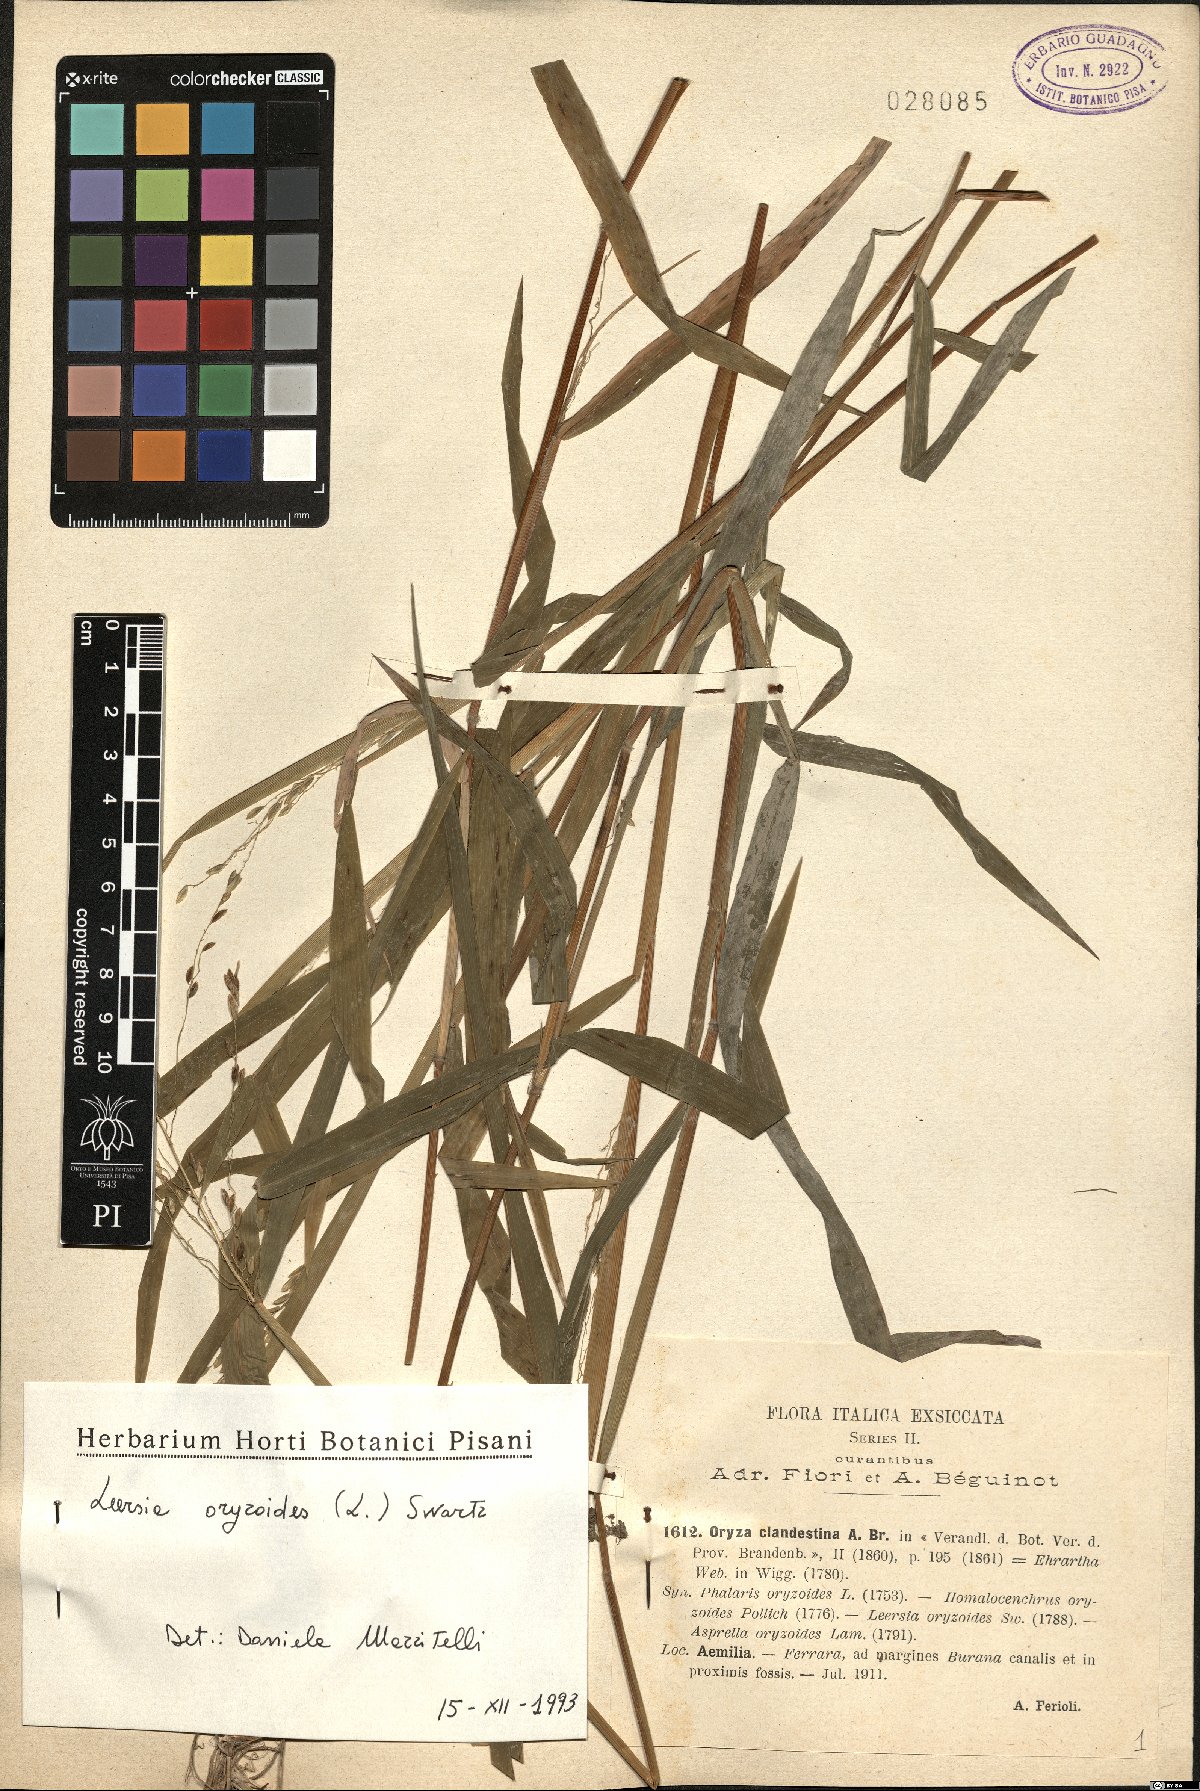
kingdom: Plantae
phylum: Tracheophyta
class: Liliopsida
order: Poales
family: Poaceae
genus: Leersia
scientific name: Leersia oryzoides
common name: Cut-grass
